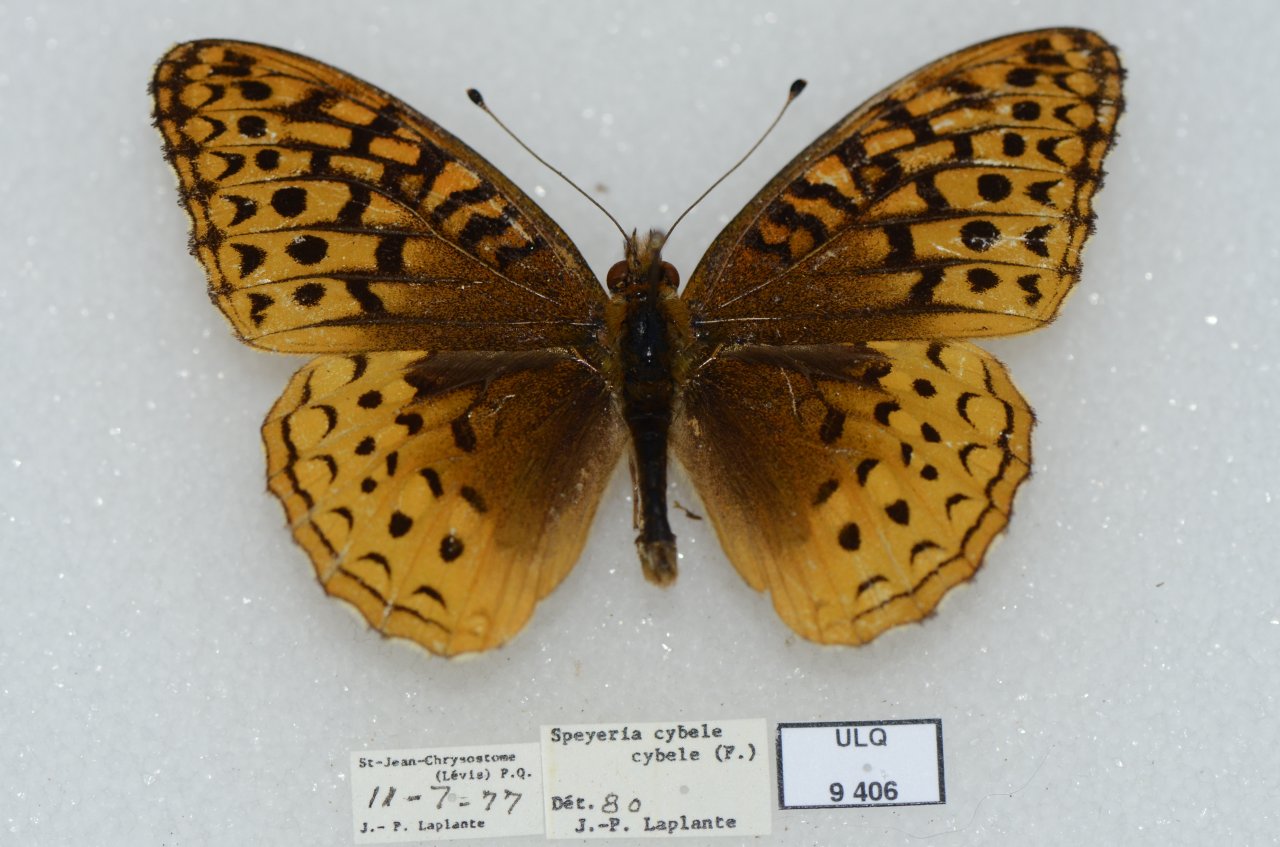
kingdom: Animalia
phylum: Arthropoda
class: Insecta
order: Lepidoptera
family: Nymphalidae
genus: Speyeria
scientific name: Speyeria cybele
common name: Great Spangled Fritillary
